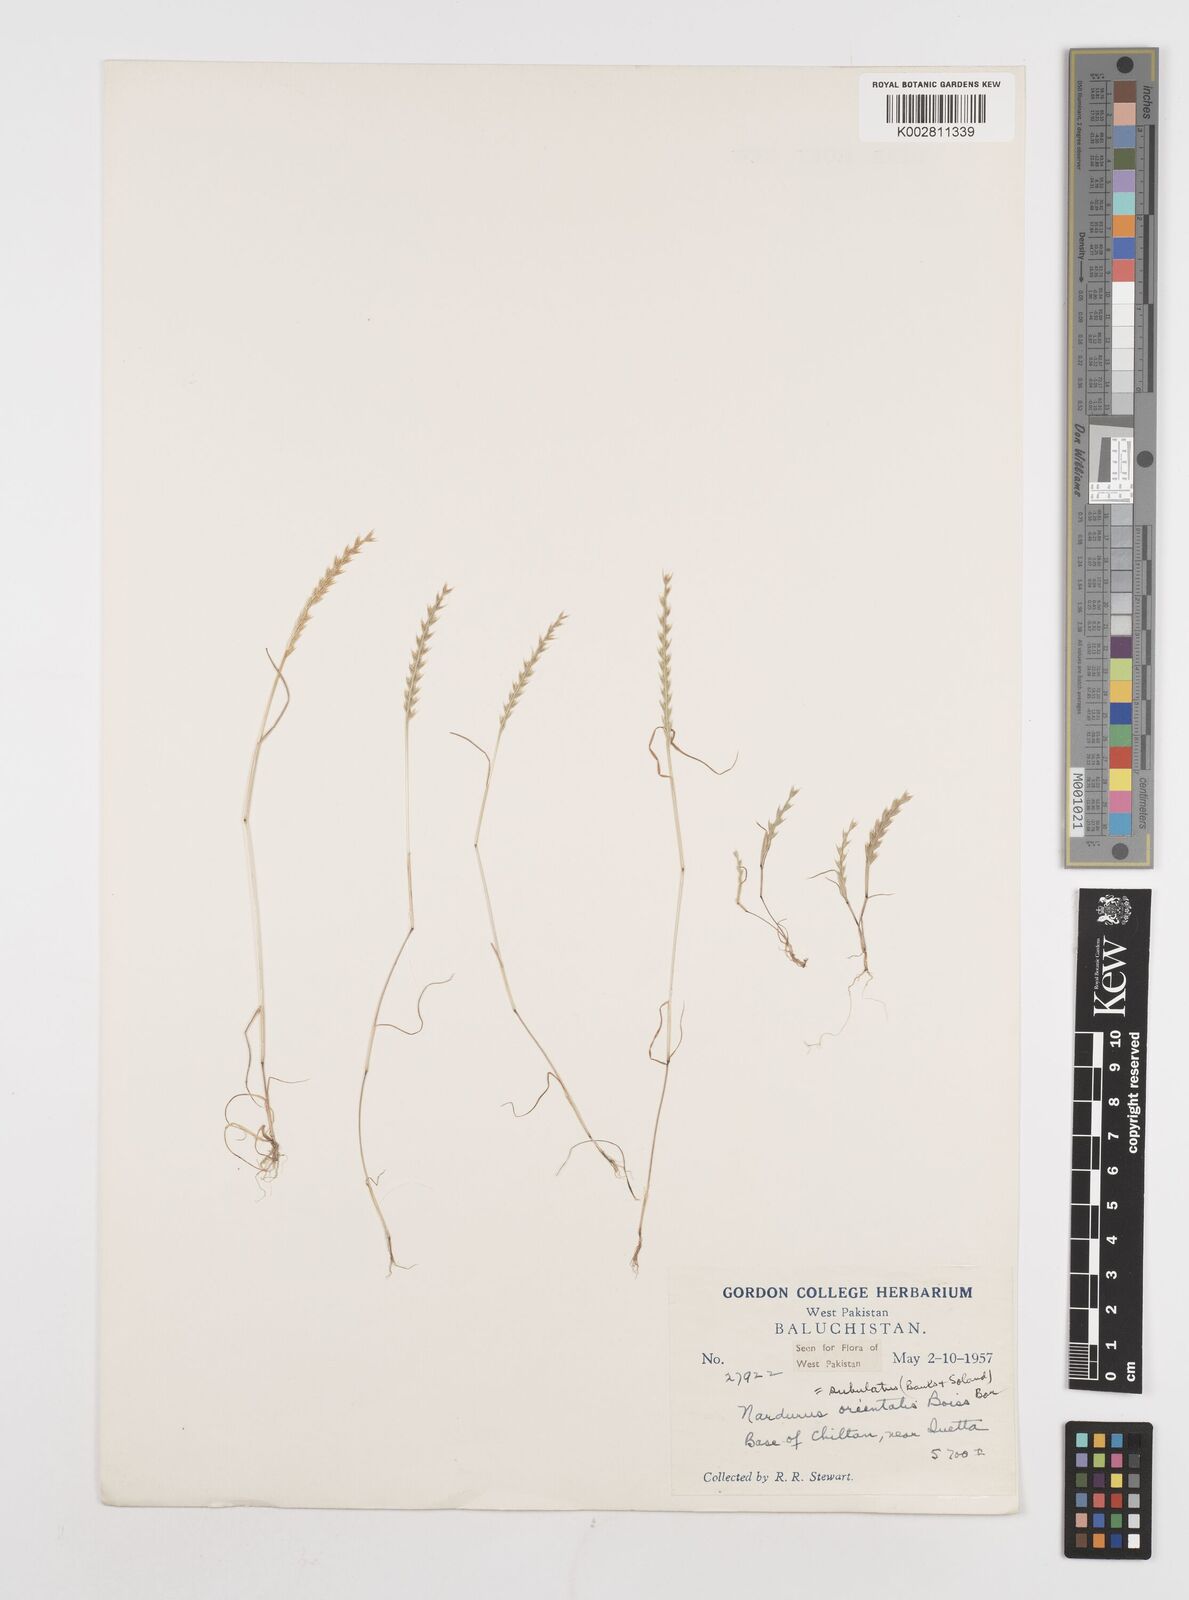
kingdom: Plantae
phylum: Tracheophyta
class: Liliopsida
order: Poales
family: Poaceae
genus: Festuca
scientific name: Festuca orientalis
